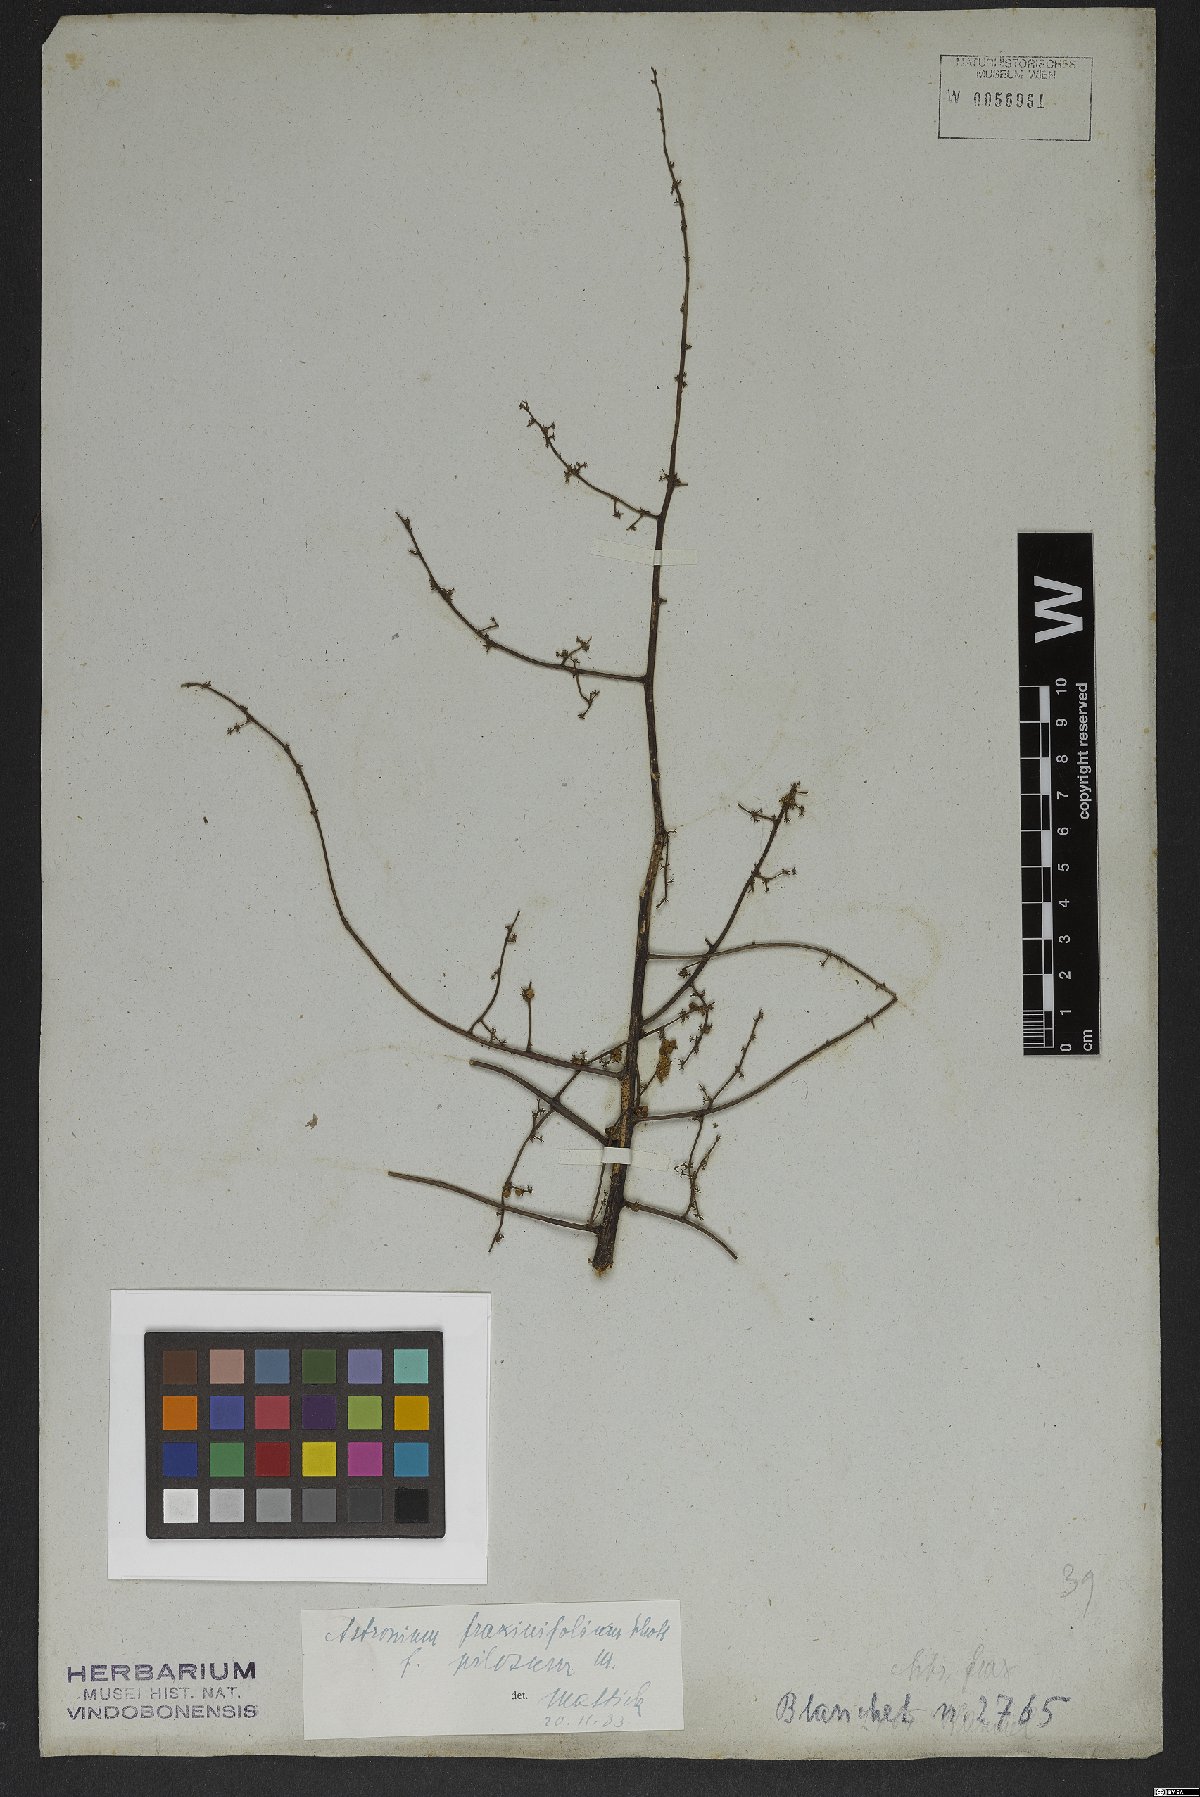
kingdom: Plantae
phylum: Tracheophyta
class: Magnoliopsida
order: Sapindales
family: Anacardiaceae
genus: Astronium
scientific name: Astronium fraxinifolium
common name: Tigerwood
